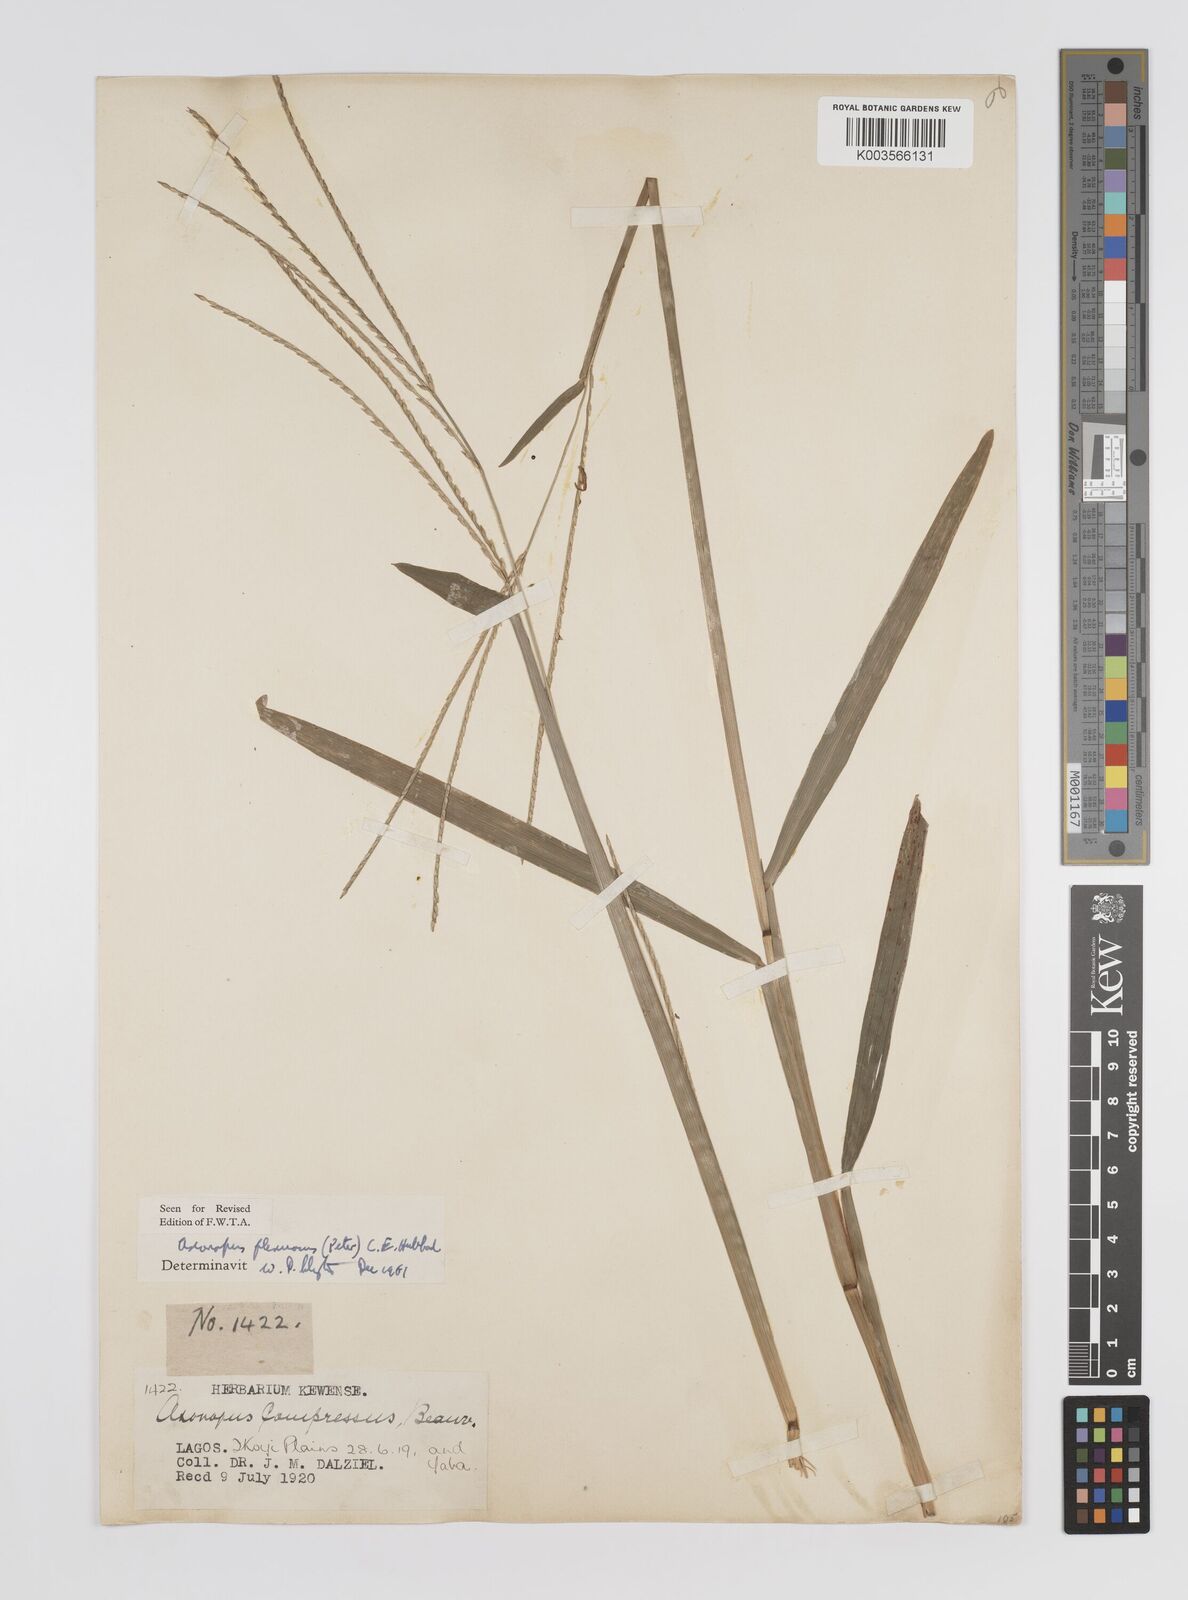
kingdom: Plantae
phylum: Tracheophyta
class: Liliopsida
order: Poales
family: Poaceae
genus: Axonopus
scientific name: Axonopus flexuosus
